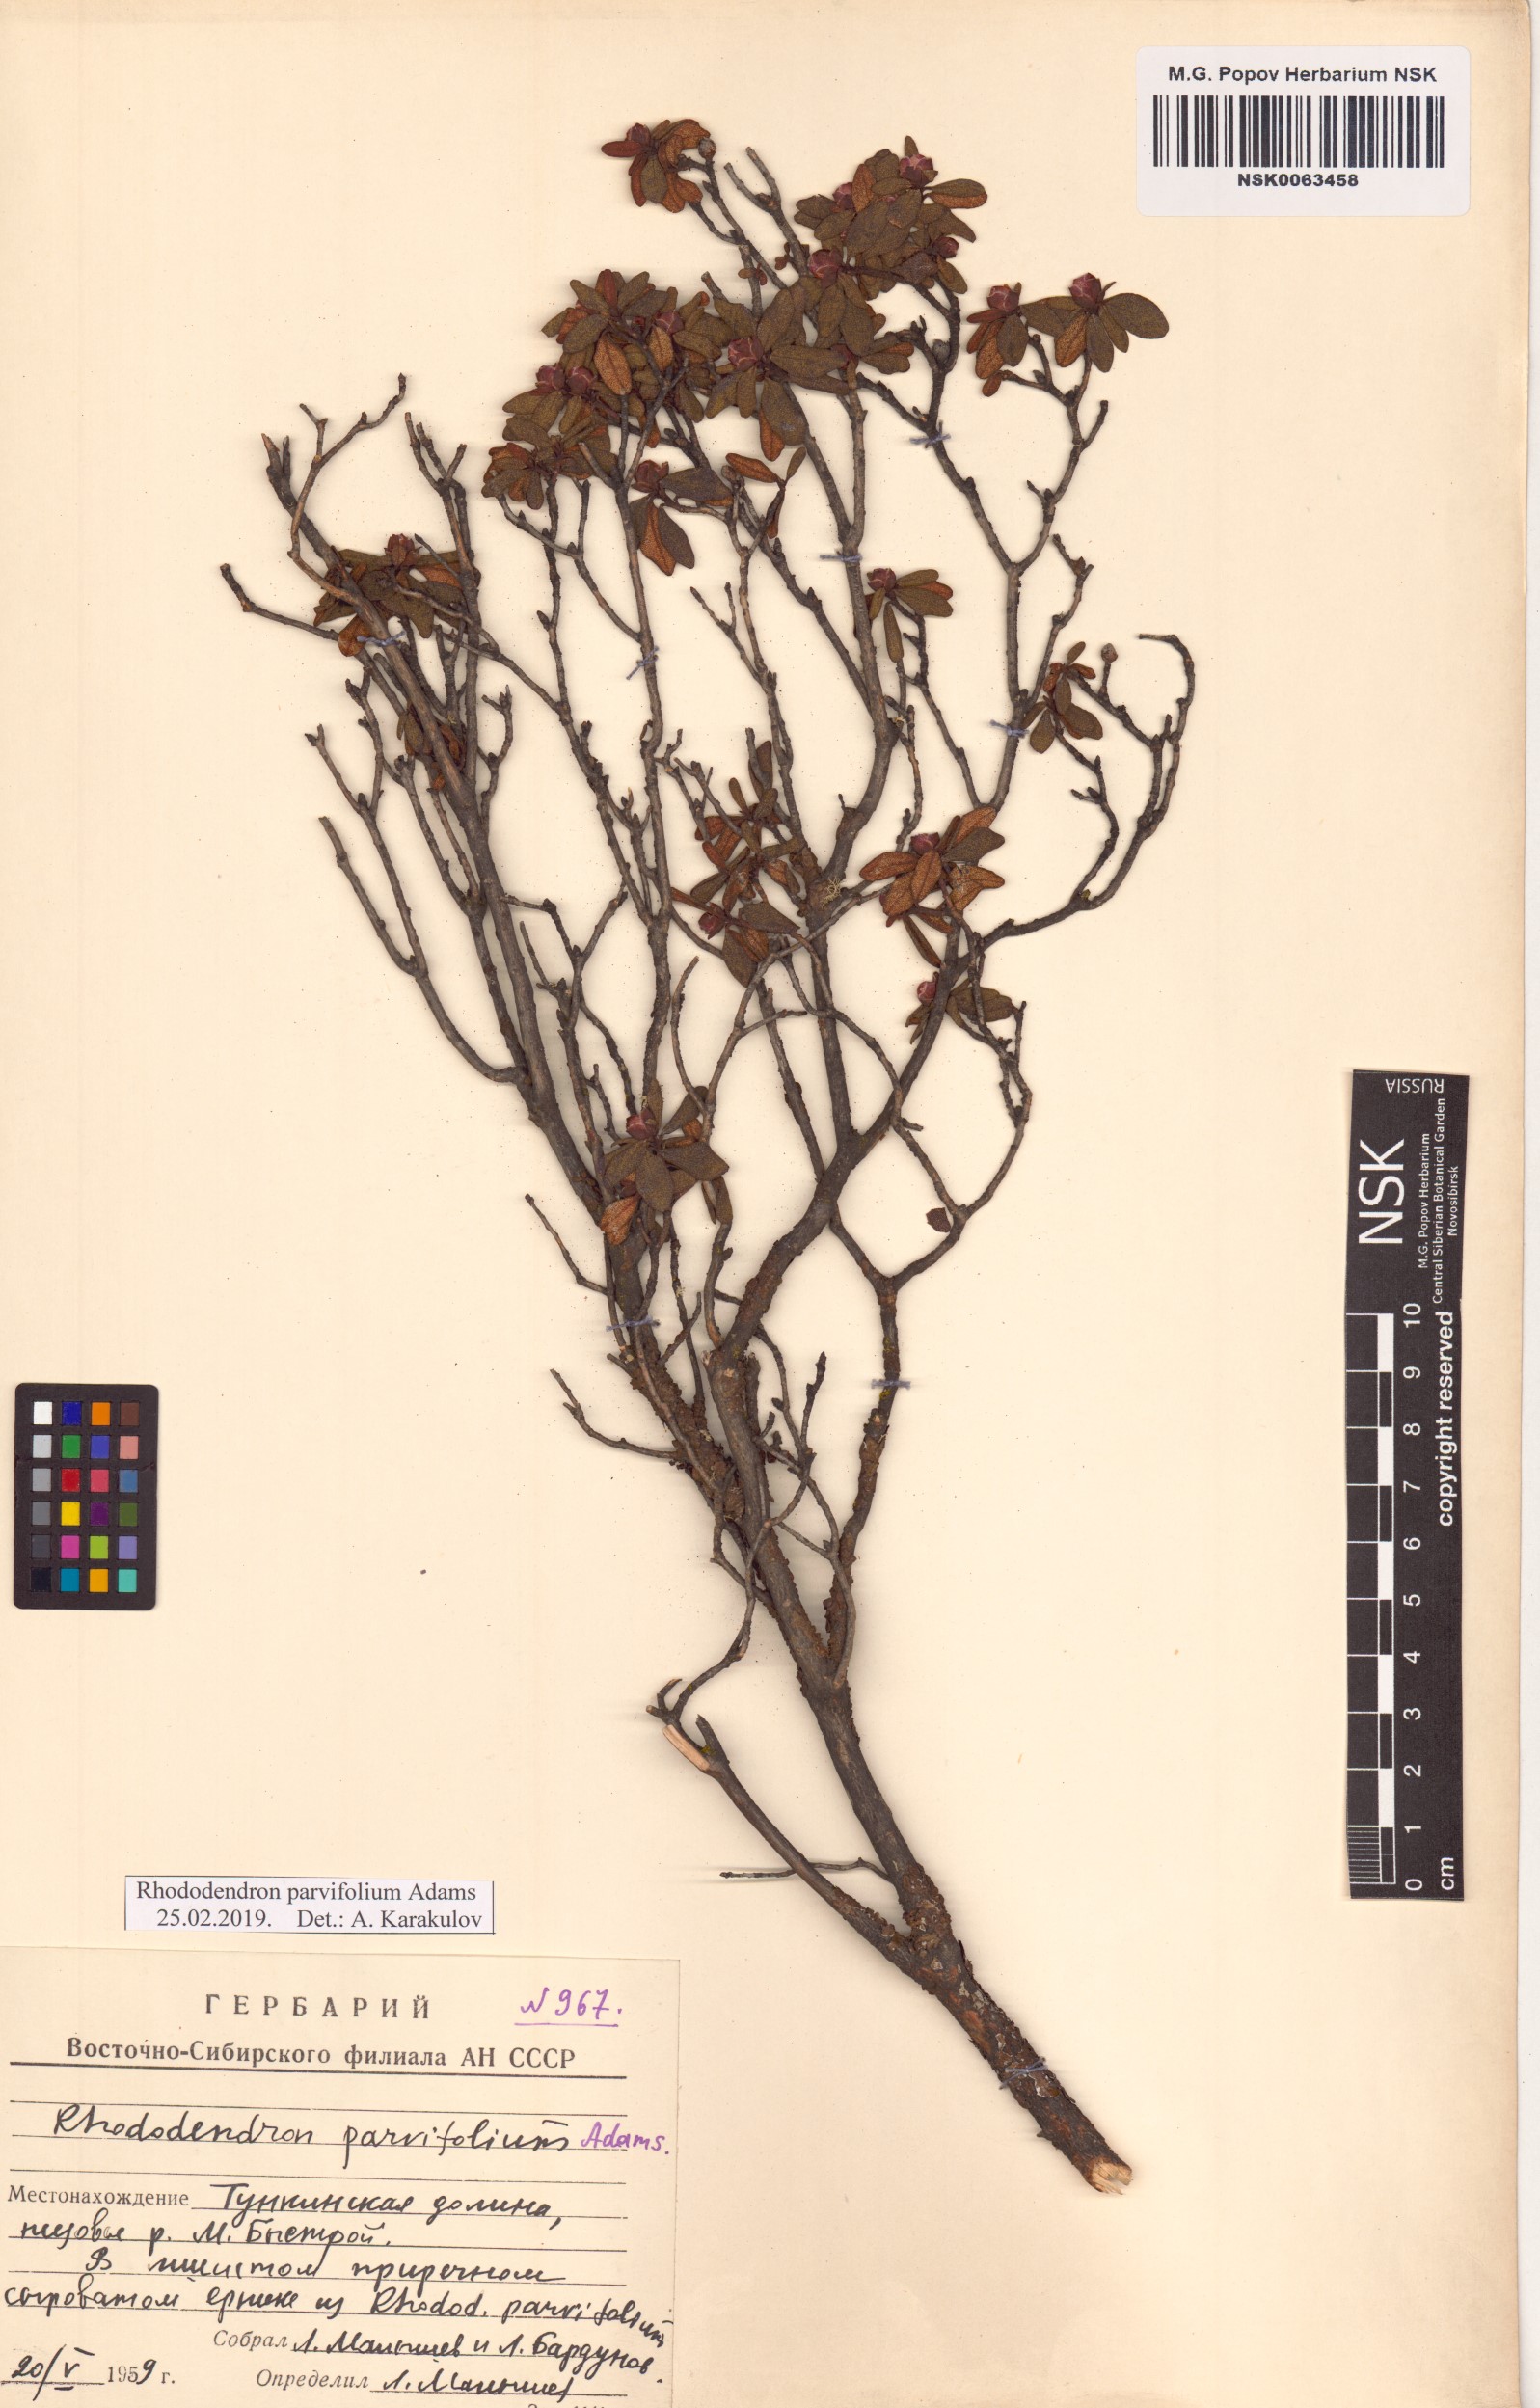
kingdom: Plantae
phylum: Tracheophyta
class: Magnoliopsida
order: Ericales
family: Ericaceae
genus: Rhododendron
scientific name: Rhododendron parvifolium
